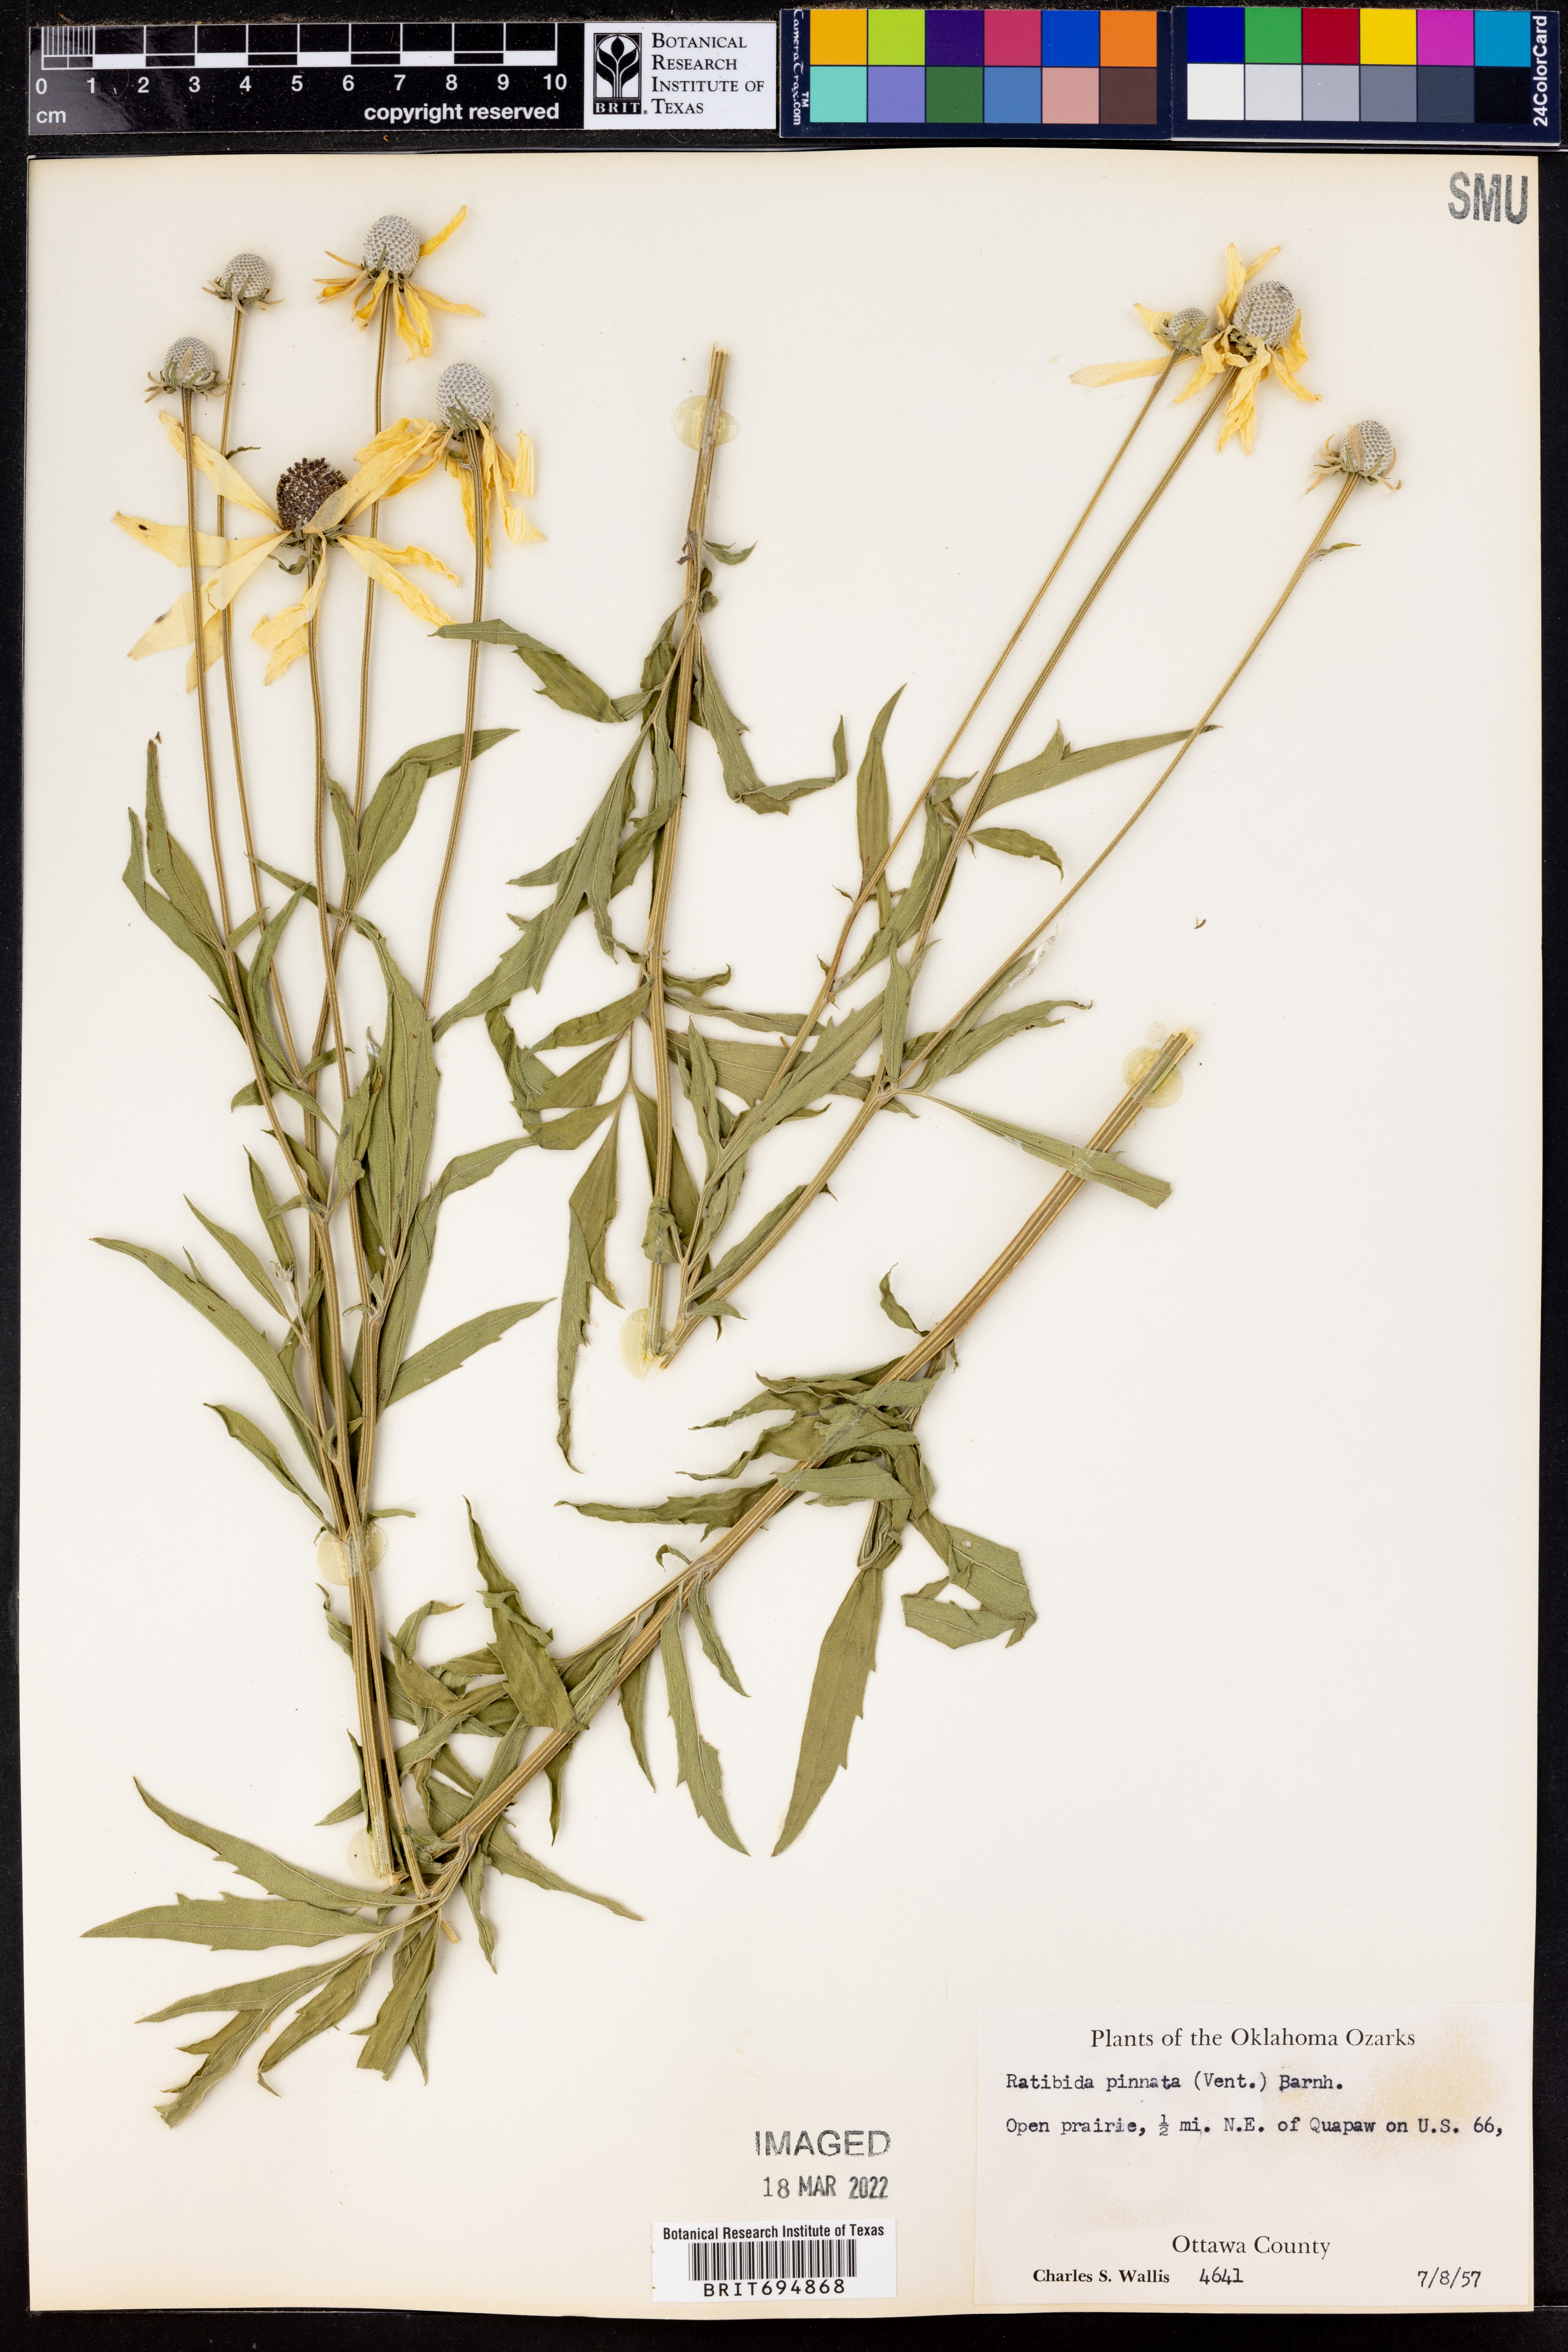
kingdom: Plantae
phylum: Tracheophyta
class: Magnoliopsida
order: Asterales
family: Asteraceae
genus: Ratibida
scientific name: Ratibida pinnata
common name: Drooping prairie-coneflower
